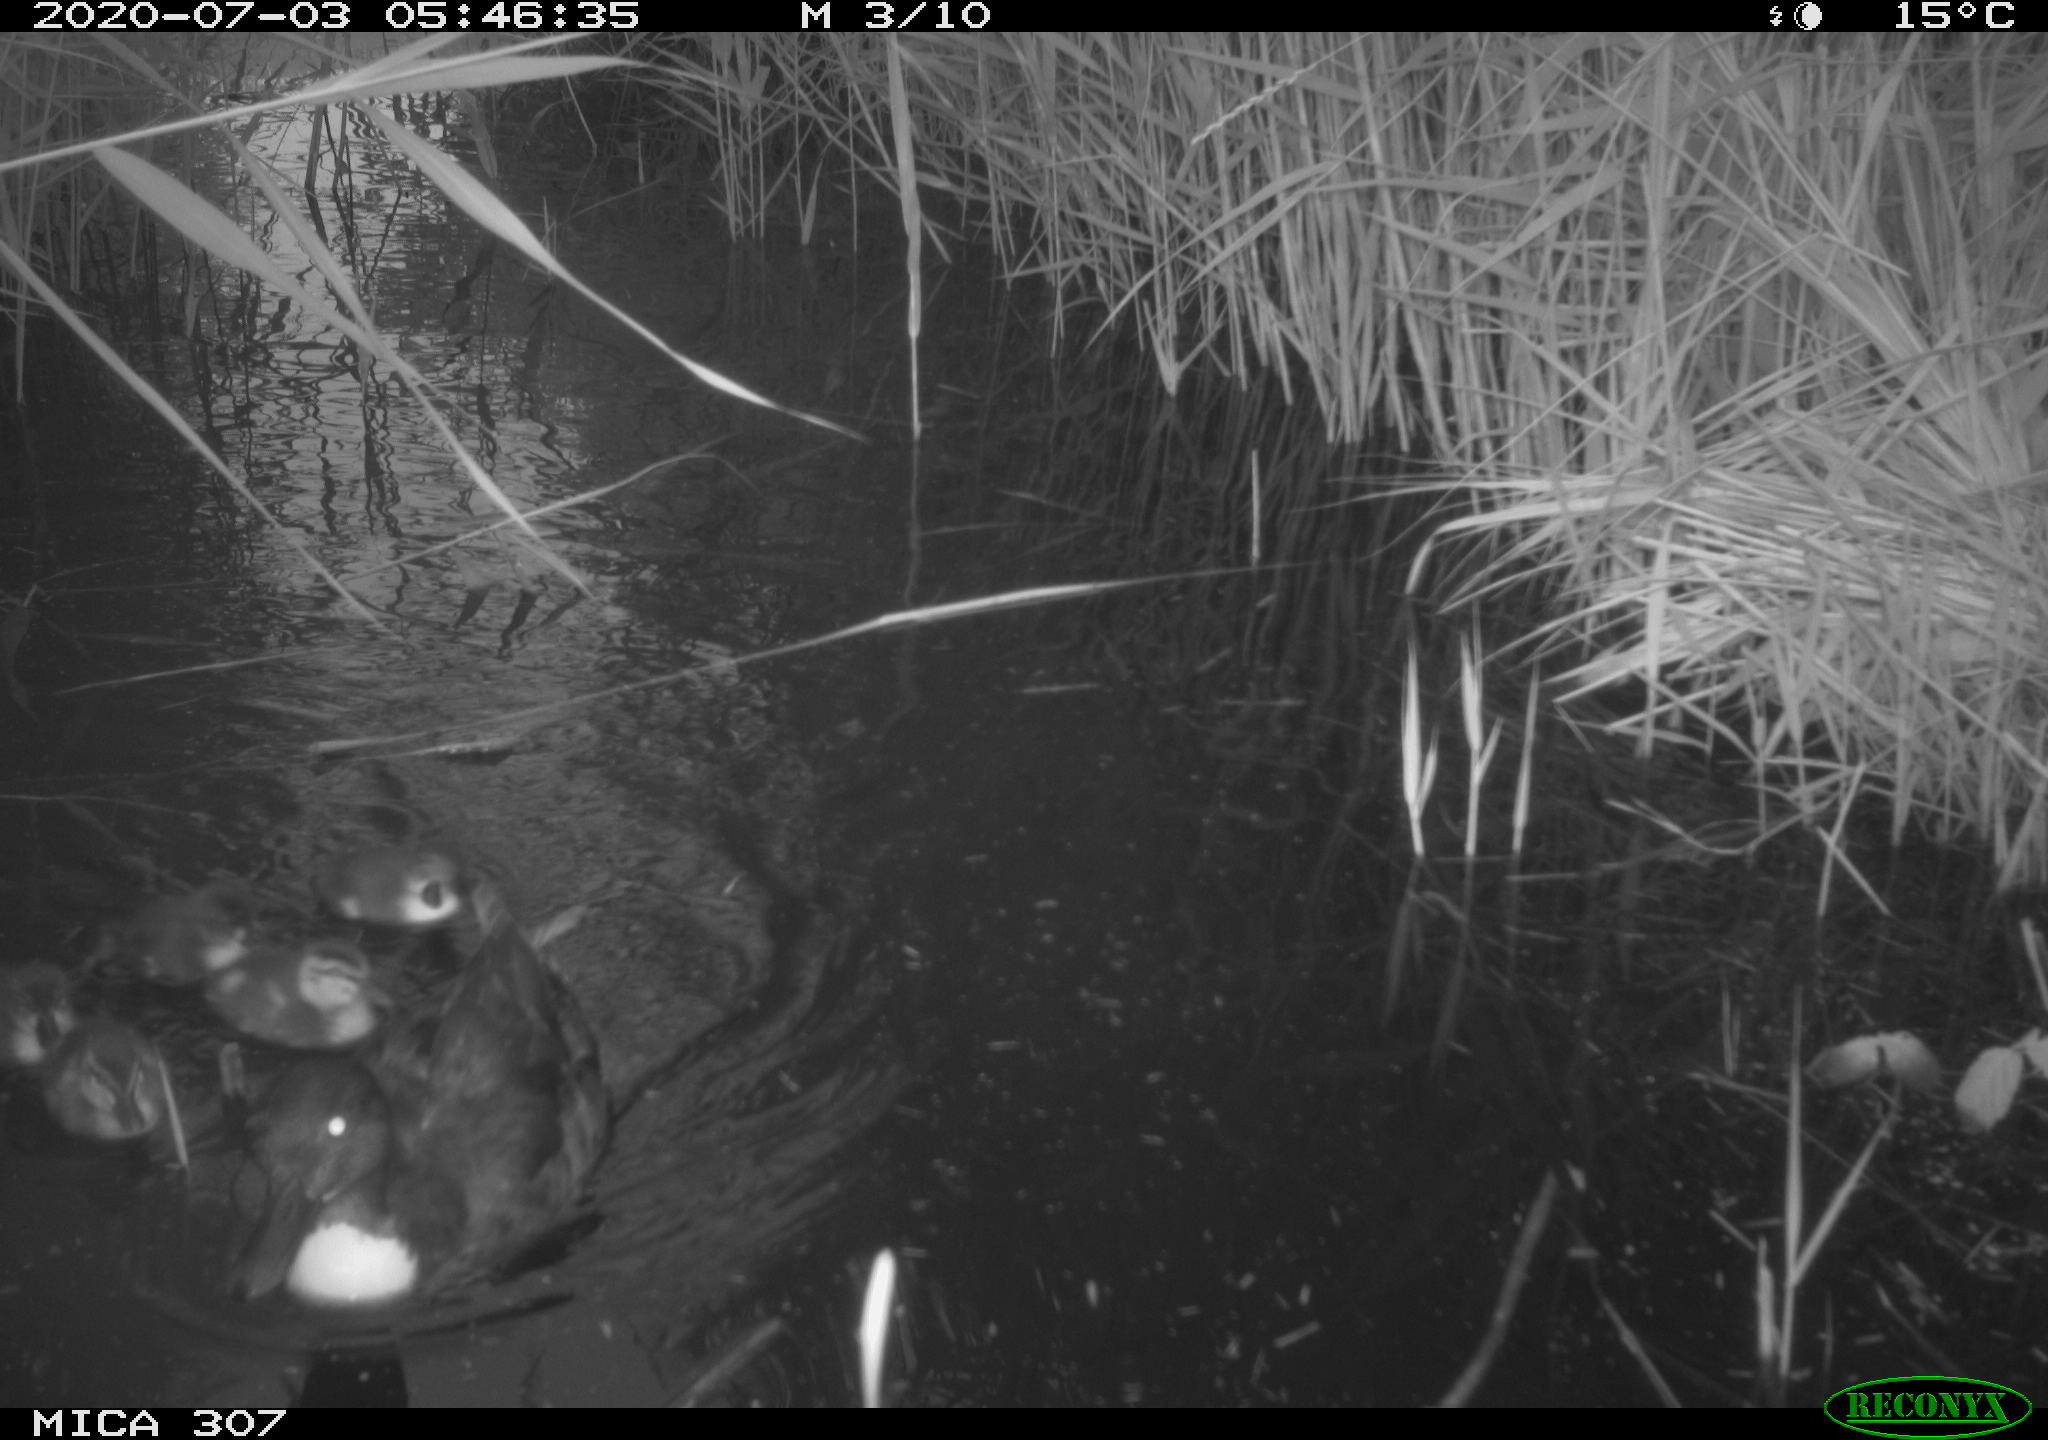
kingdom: Animalia
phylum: Chordata
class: Aves
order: Anseriformes
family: Anatidae
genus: Anas
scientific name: Anas platyrhynchos
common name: Mallard
